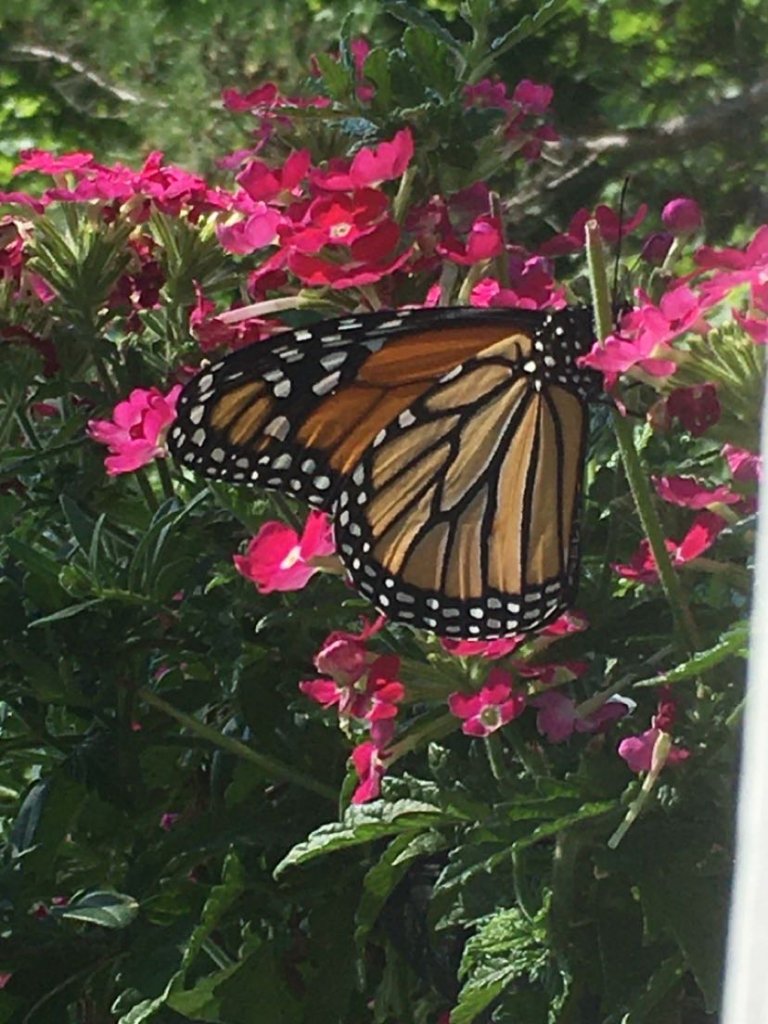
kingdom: Animalia
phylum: Arthropoda
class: Insecta
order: Lepidoptera
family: Nymphalidae
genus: Danaus
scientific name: Danaus plexippus
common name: Monarch
